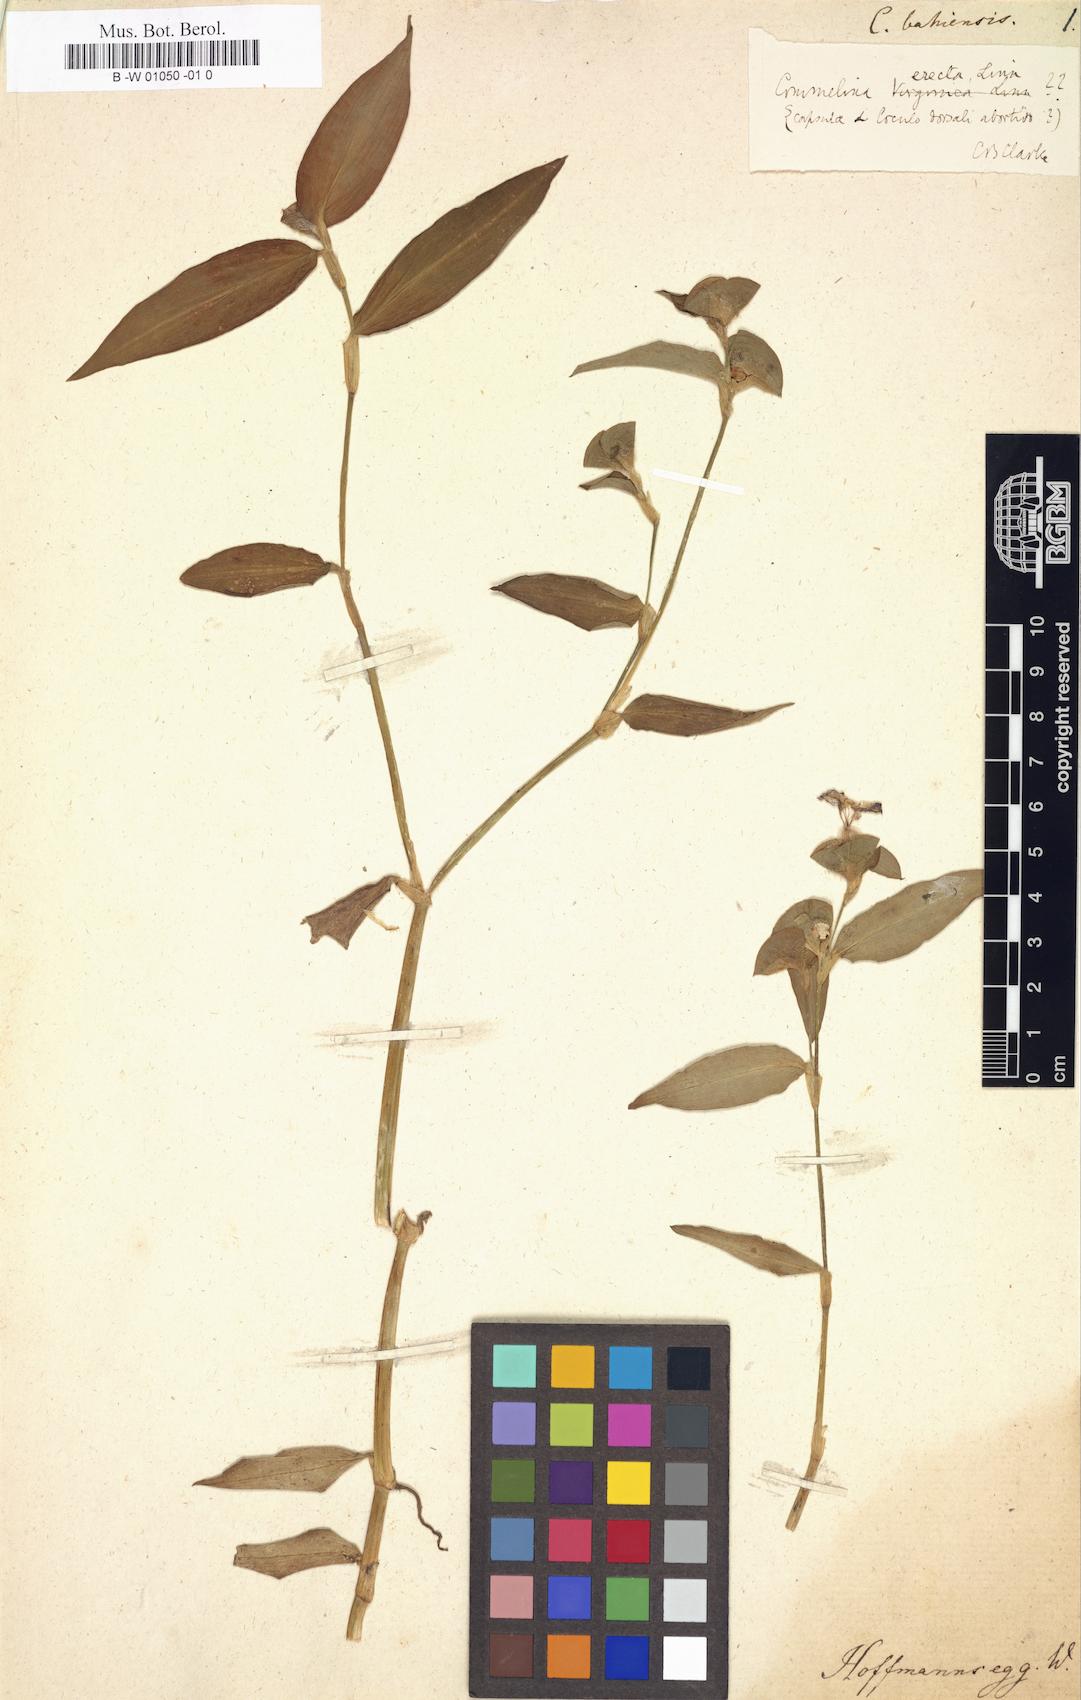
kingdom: Plantae
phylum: Tracheophyta
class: Liliopsida
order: Commelinales
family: Commelinaceae
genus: Commelina
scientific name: Commelina erecta
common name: Blousel blommetjie
